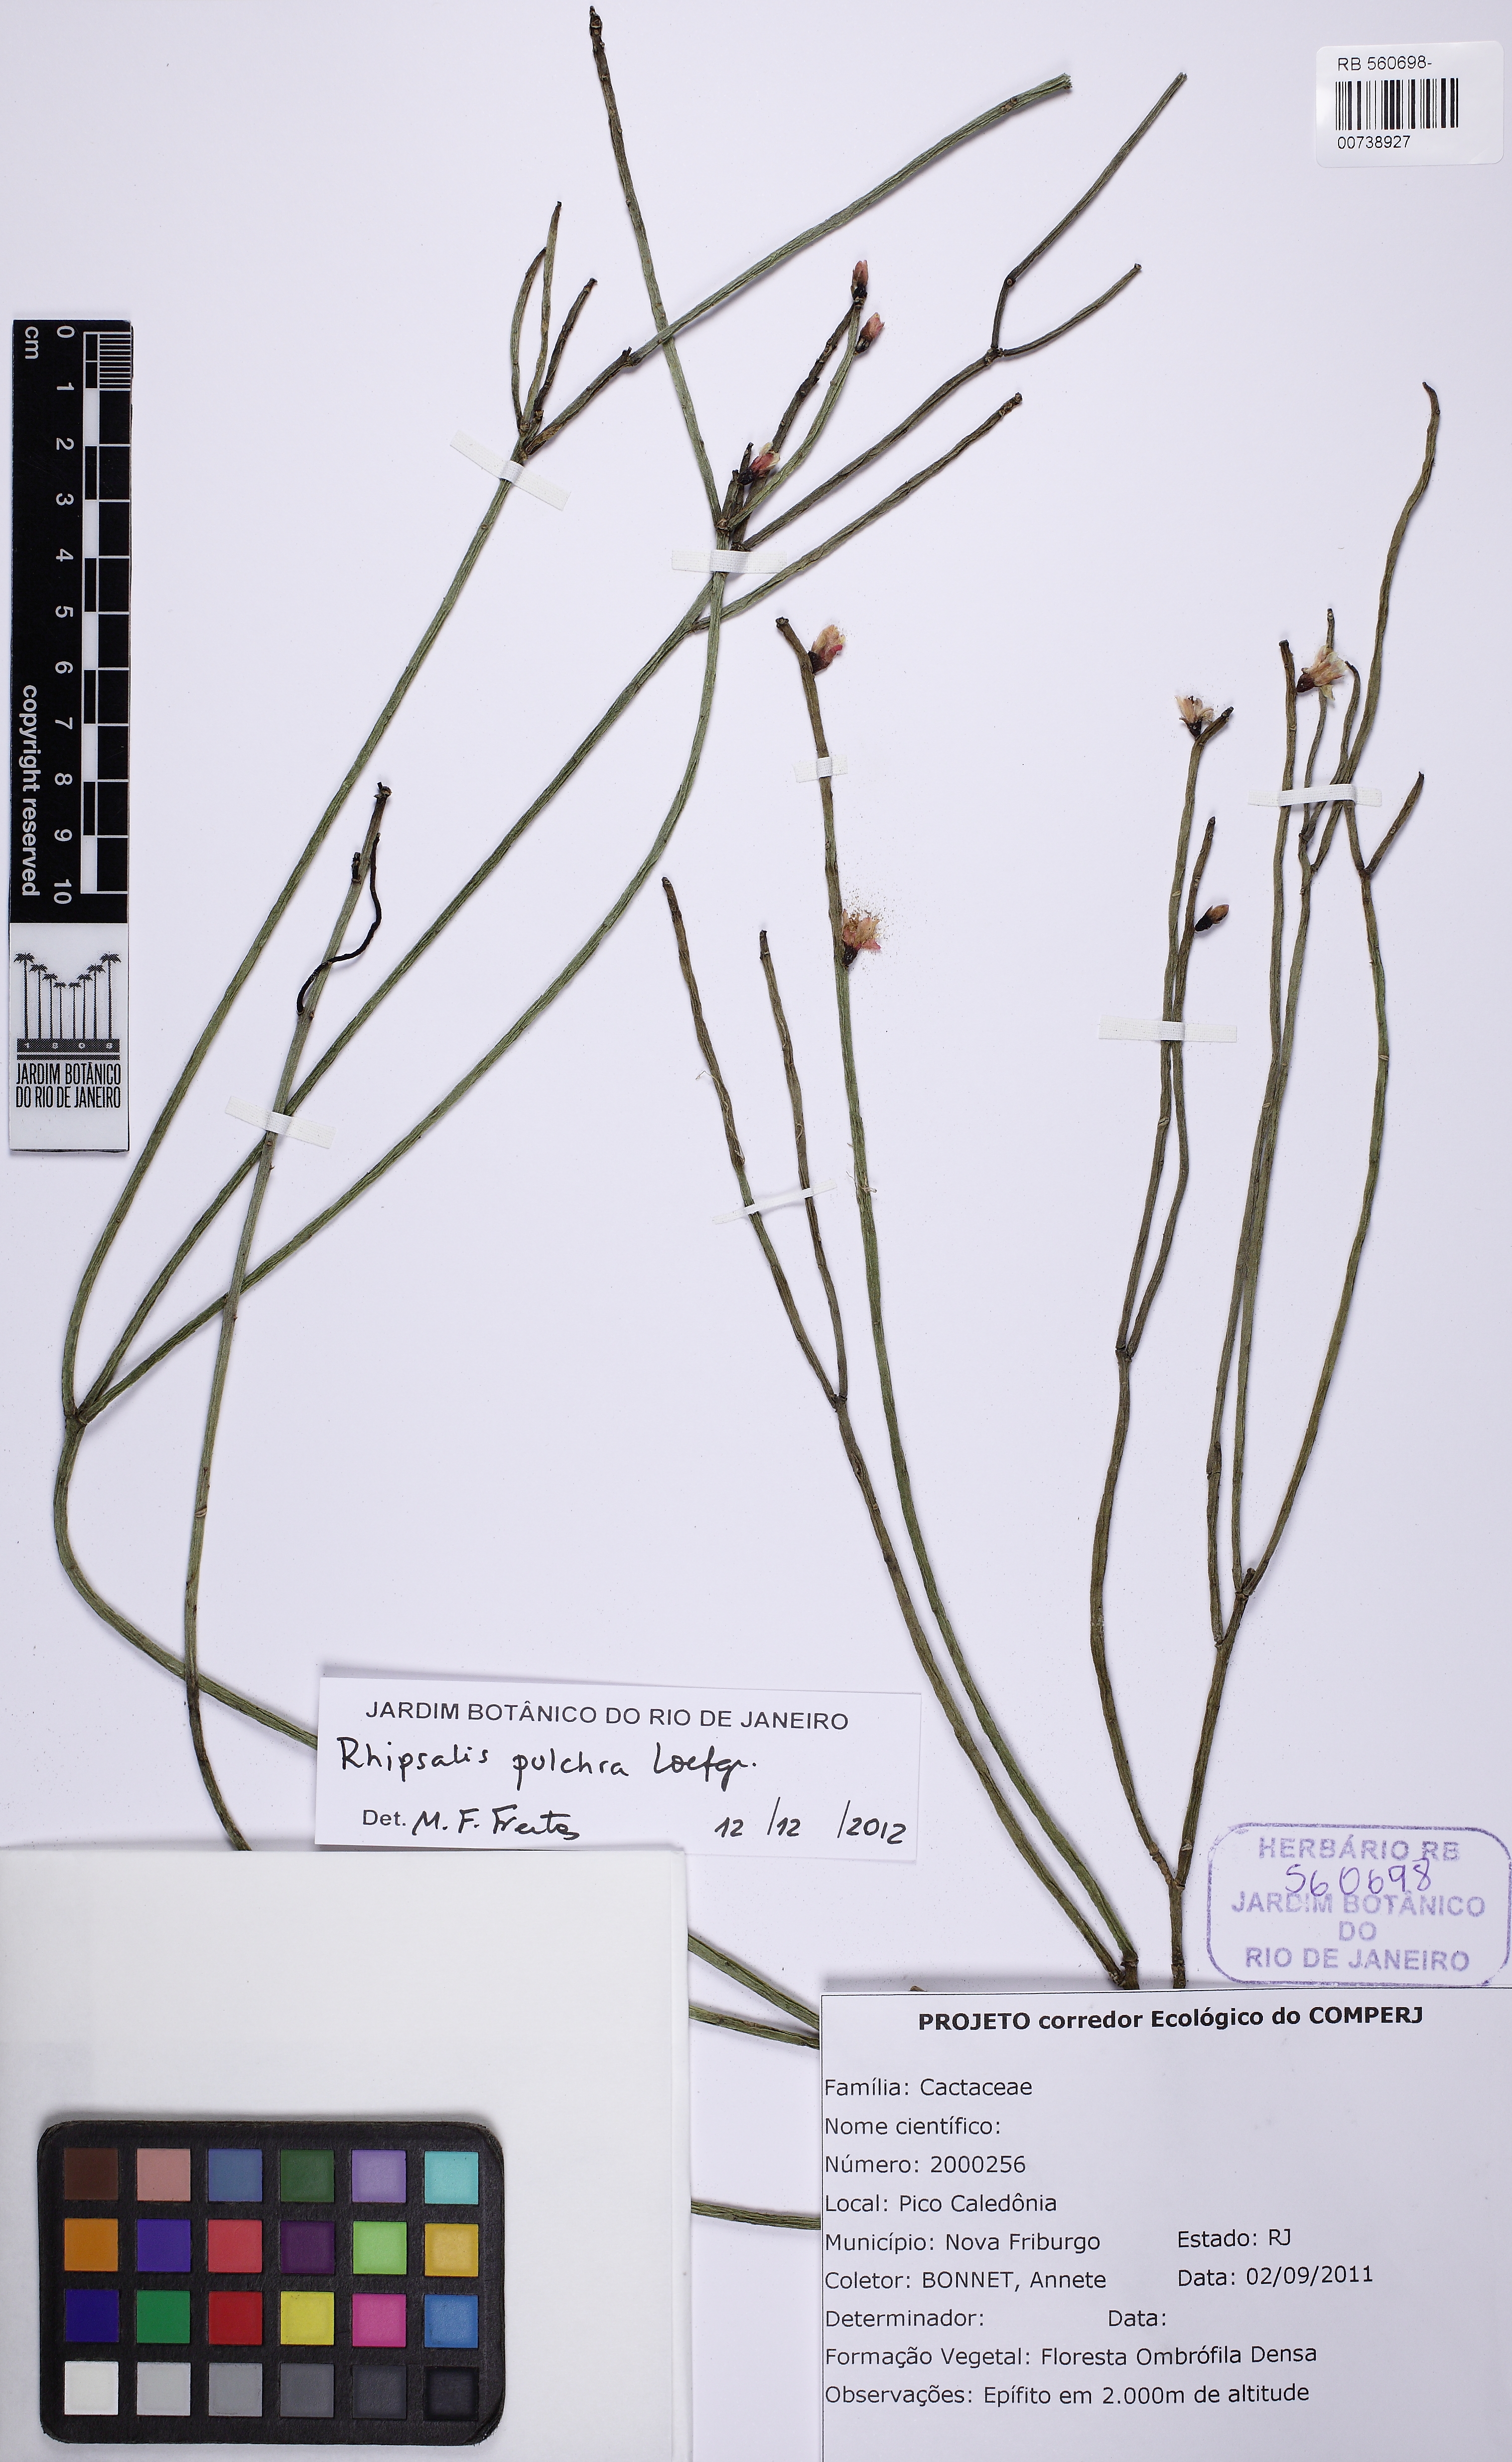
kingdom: Plantae
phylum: Tracheophyta
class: Magnoliopsida
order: Caryophyllales
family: Cactaceae
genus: Rhipsalis
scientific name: Rhipsalis pulchra
